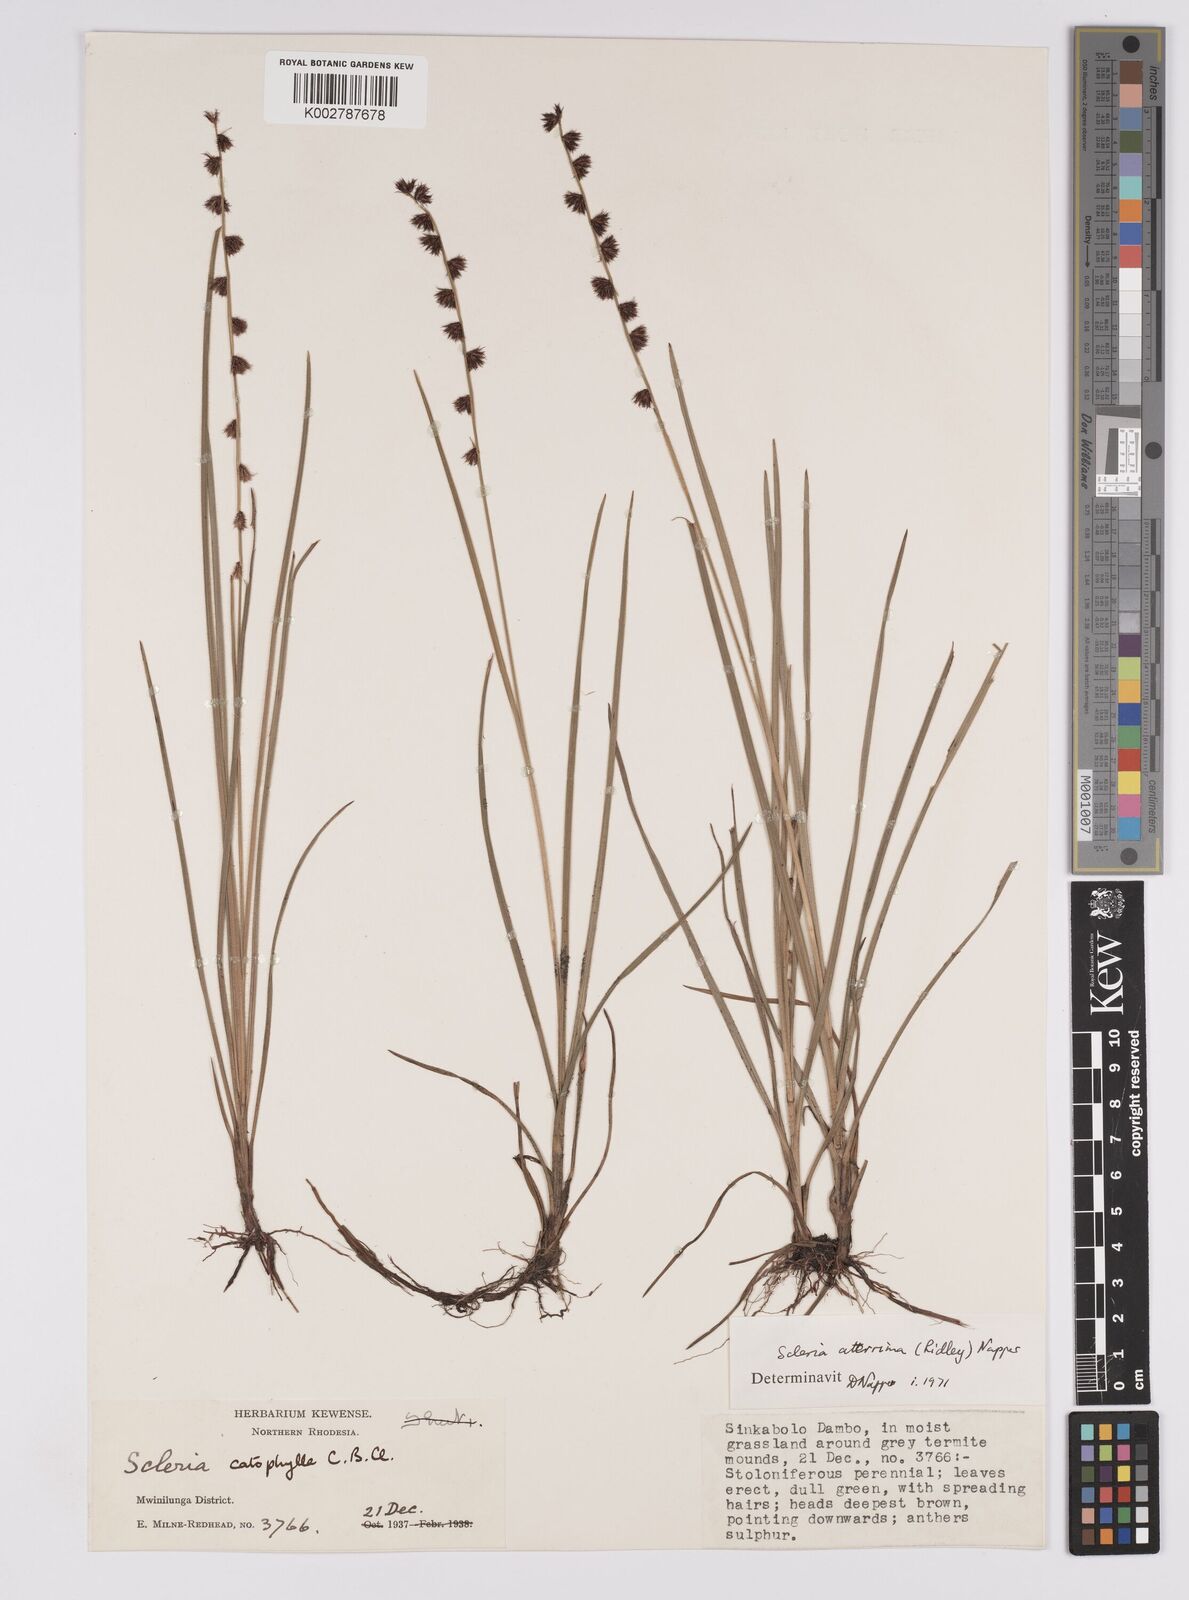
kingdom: Plantae
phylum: Tracheophyta
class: Liliopsida
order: Poales
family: Cyperaceae
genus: Scleria
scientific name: Scleria catophylla
